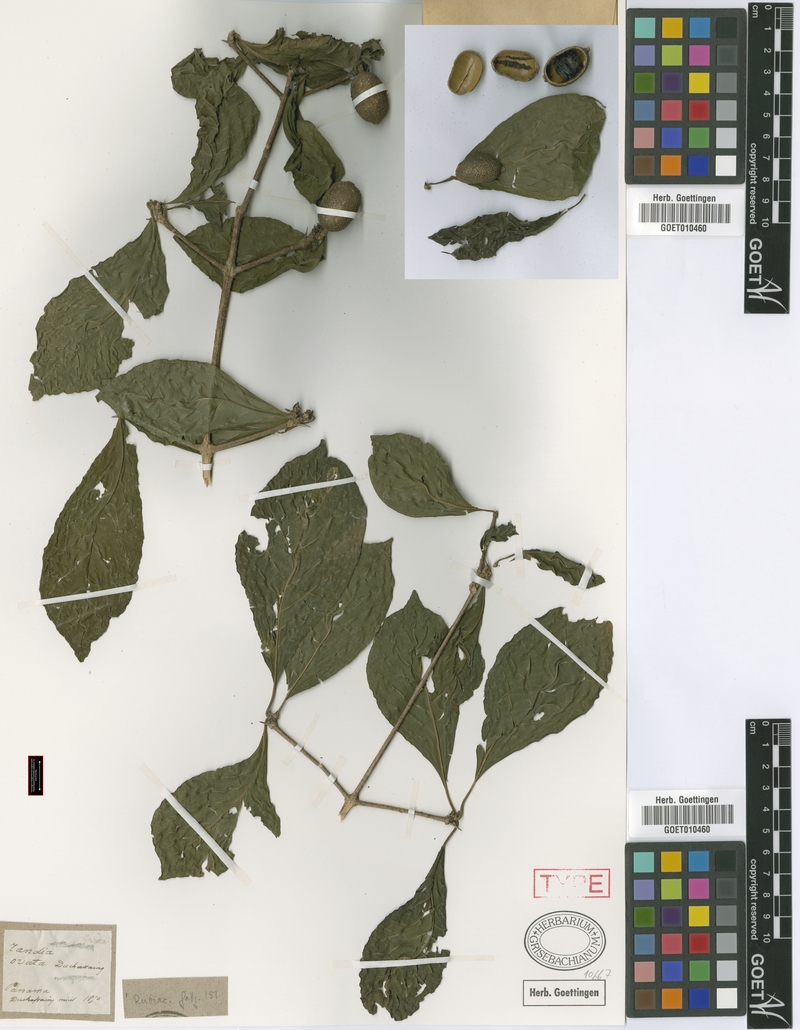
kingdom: Plantae
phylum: Tracheophyta
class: Magnoliopsida
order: Gentianales
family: Rubiaceae
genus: Randia
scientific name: Randia armata
